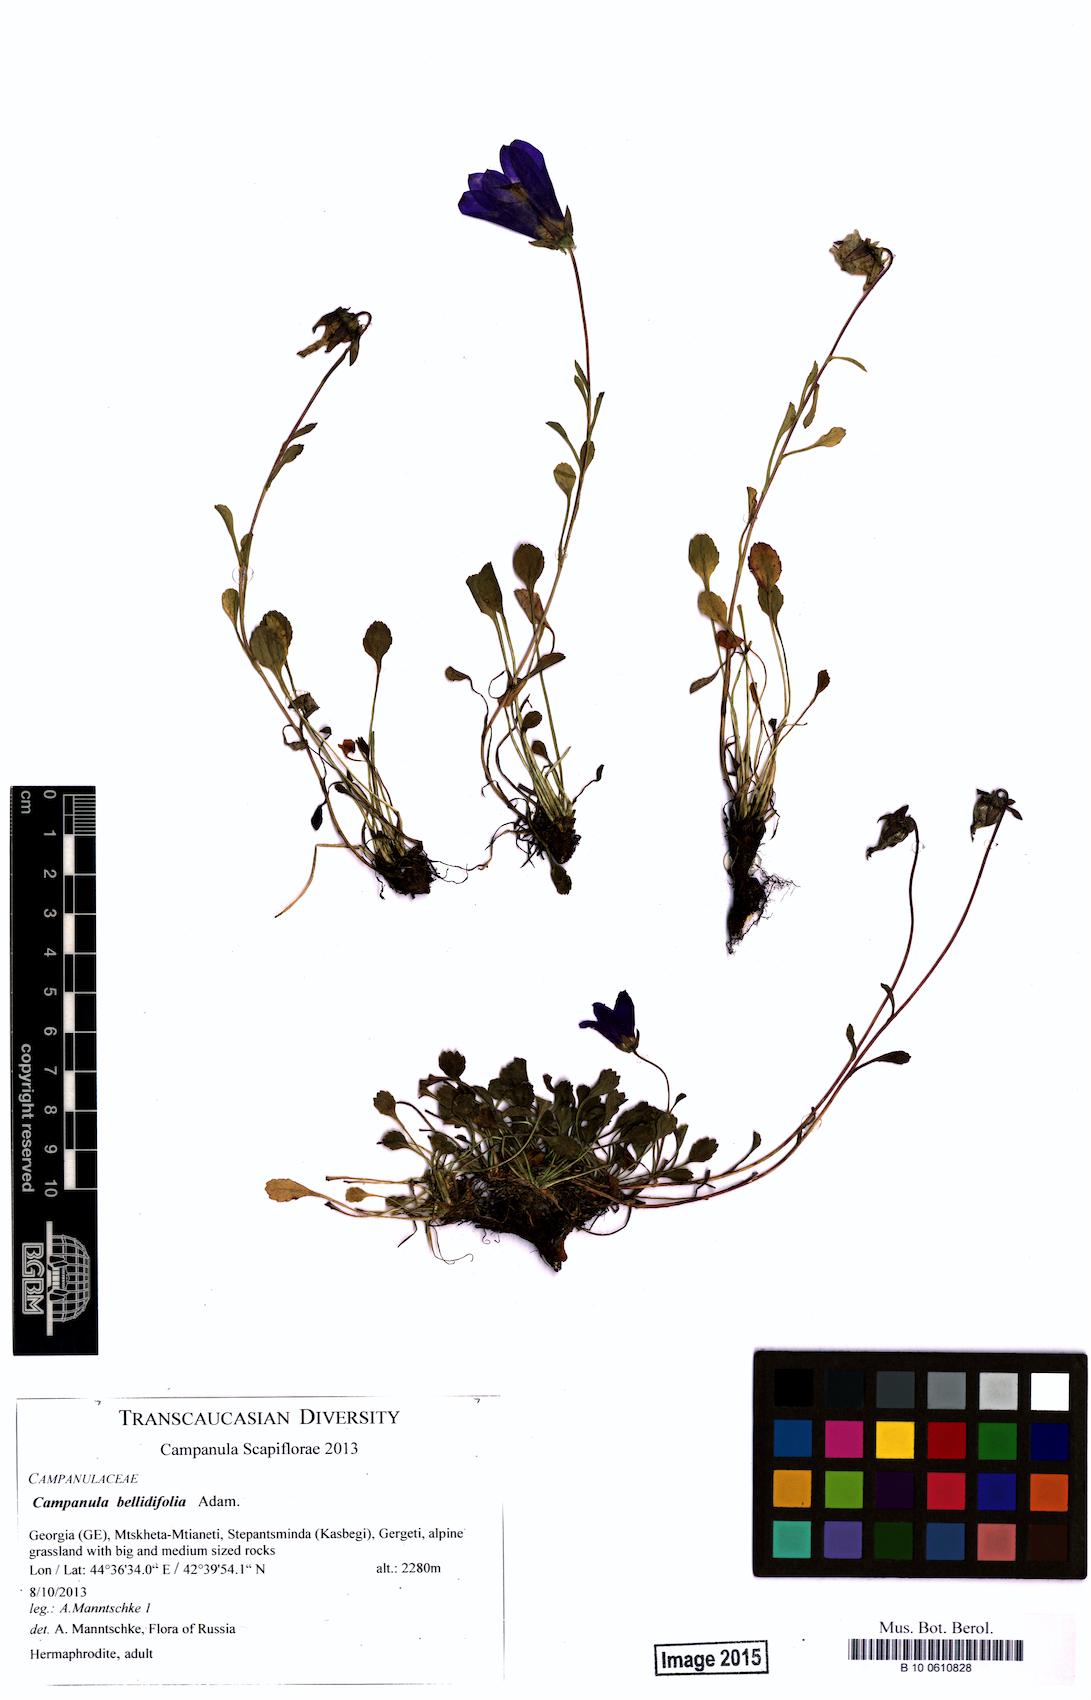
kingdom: Plantae
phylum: Tracheophyta
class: Magnoliopsida
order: Asterales
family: Campanulaceae
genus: Campanula
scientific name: Campanula bellidifolia
